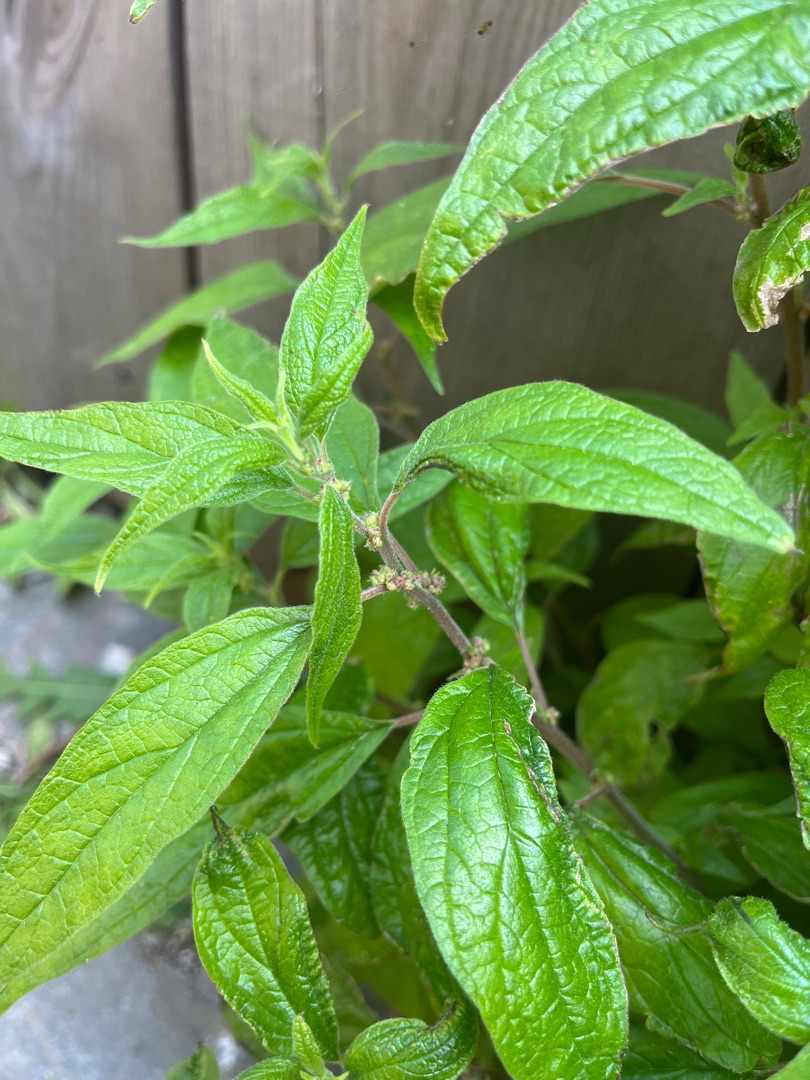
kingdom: Plantae
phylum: Tracheophyta
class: Magnoliopsida
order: Rosales
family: Urticaceae
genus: Parietaria
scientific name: Parietaria officinalis
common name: Almindelig springknap
